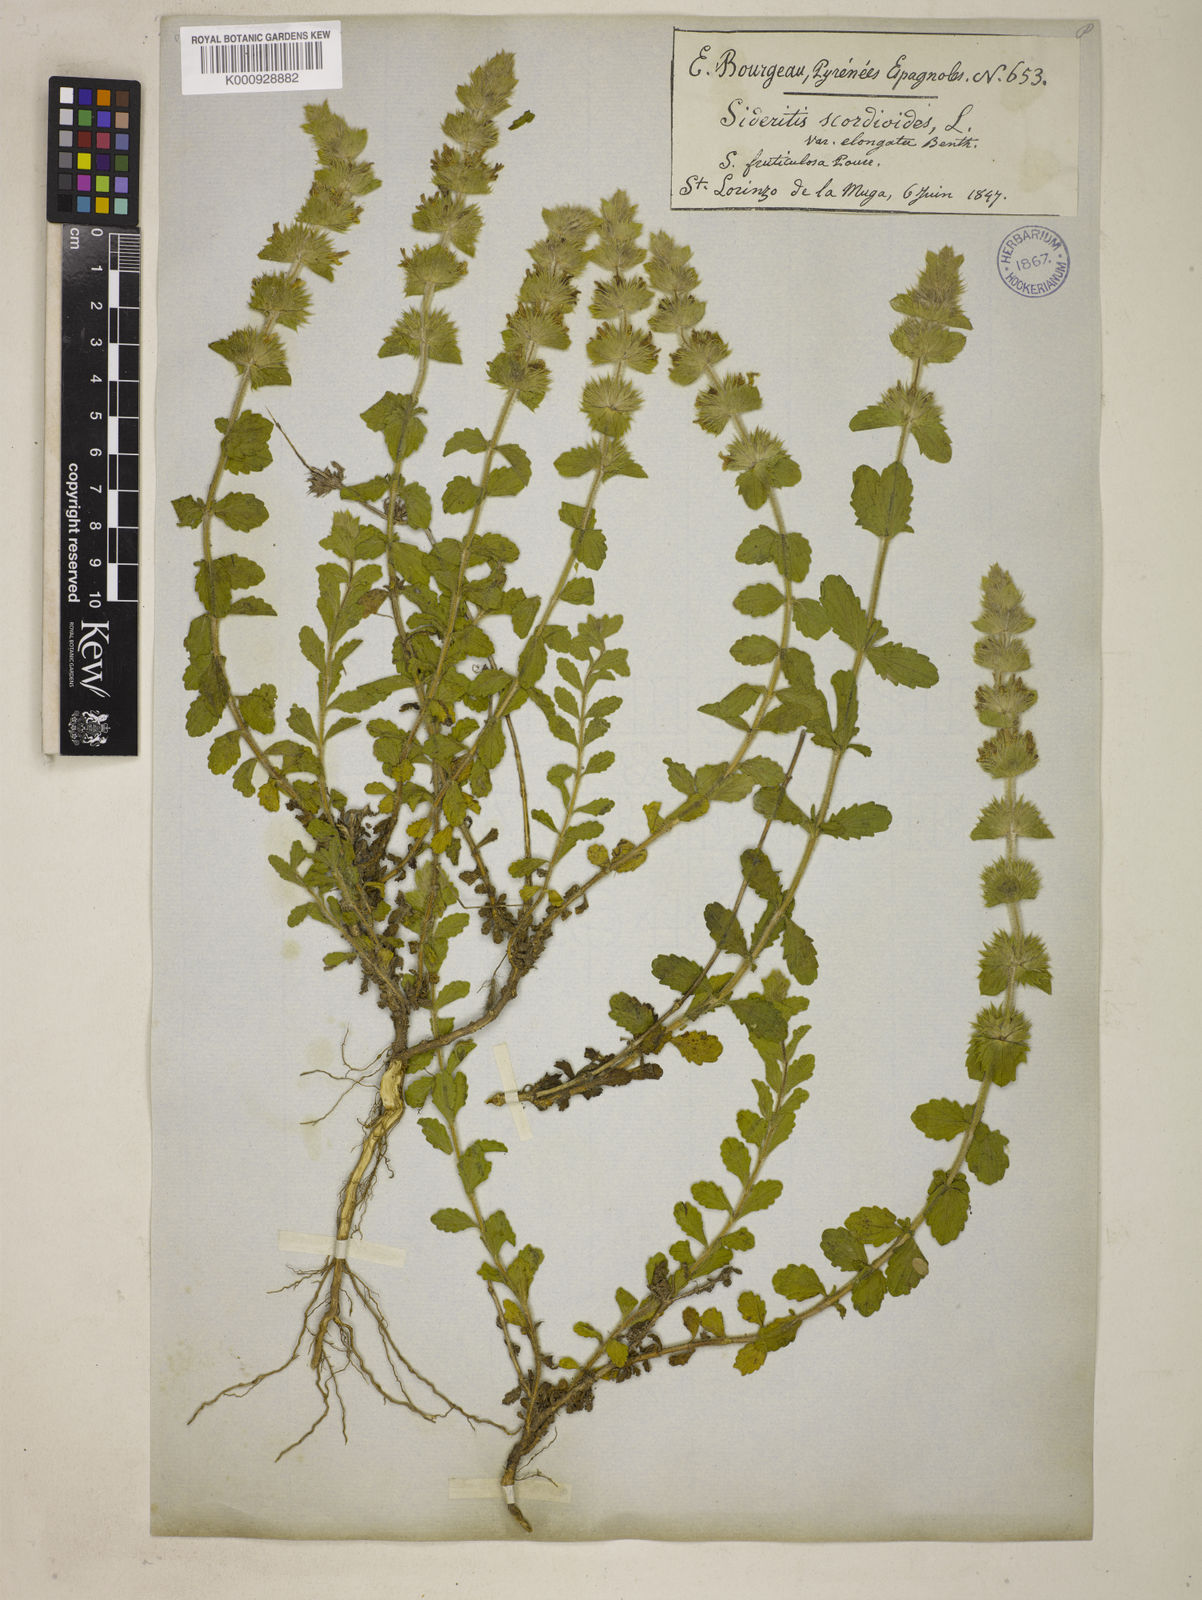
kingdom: Plantae
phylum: Tracheophyta
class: Magnoliopsida
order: Lamiales
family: Lamiaceae
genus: Sideritis
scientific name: Sideritis hyssopifolia
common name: Mountain tea
